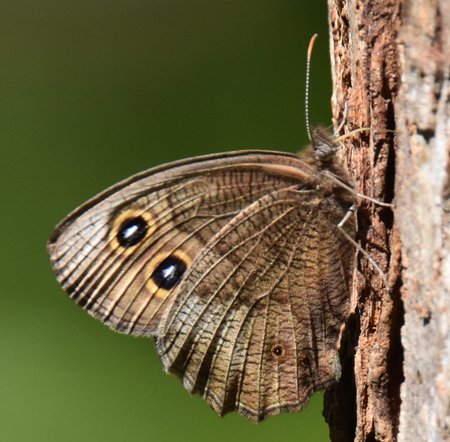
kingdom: Animalia
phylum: Arthropoda
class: Insecta
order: Lepidoptera
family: Nymphalidae
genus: Cercyonis
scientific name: Cercyonis pegala
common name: Common Wood-Nymph
